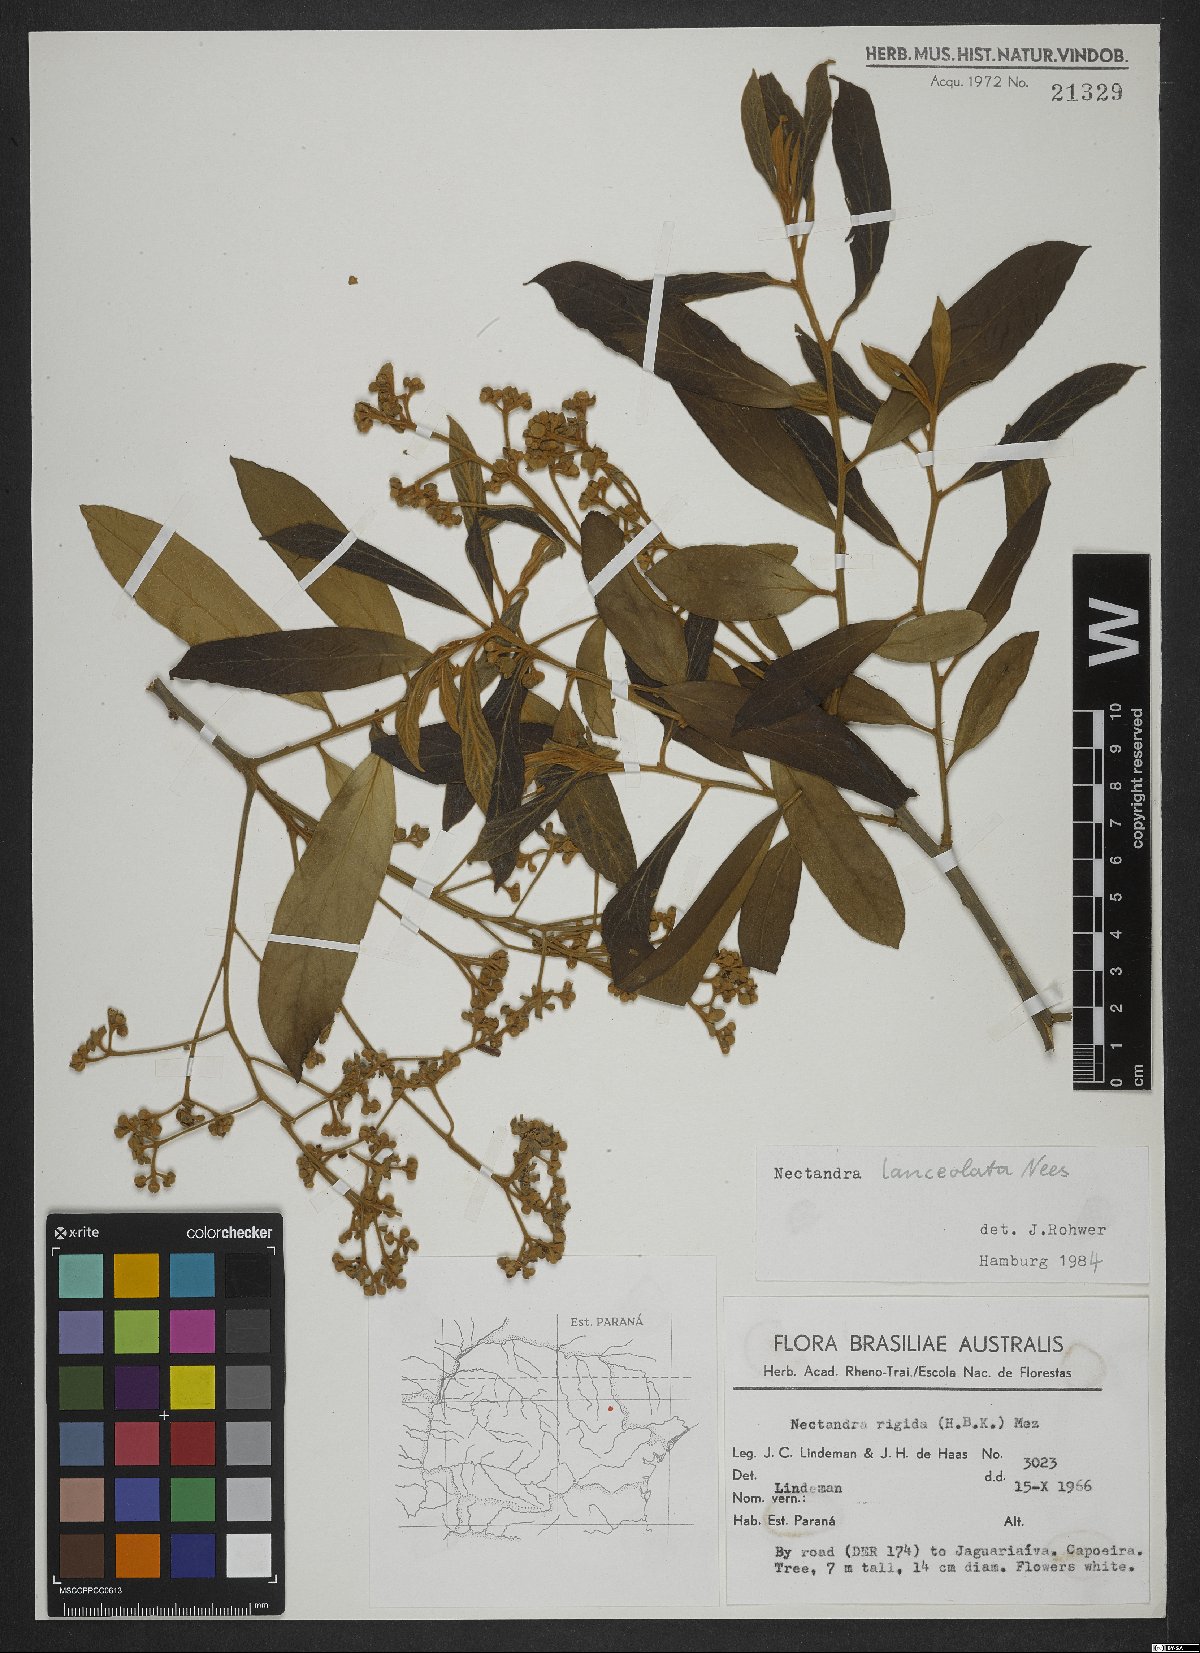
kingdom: Plantae
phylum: Tracheophyta
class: Magnoliopsida
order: Laurales
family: Lauraceae
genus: Nectandra
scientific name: Nectandra lanceolata
